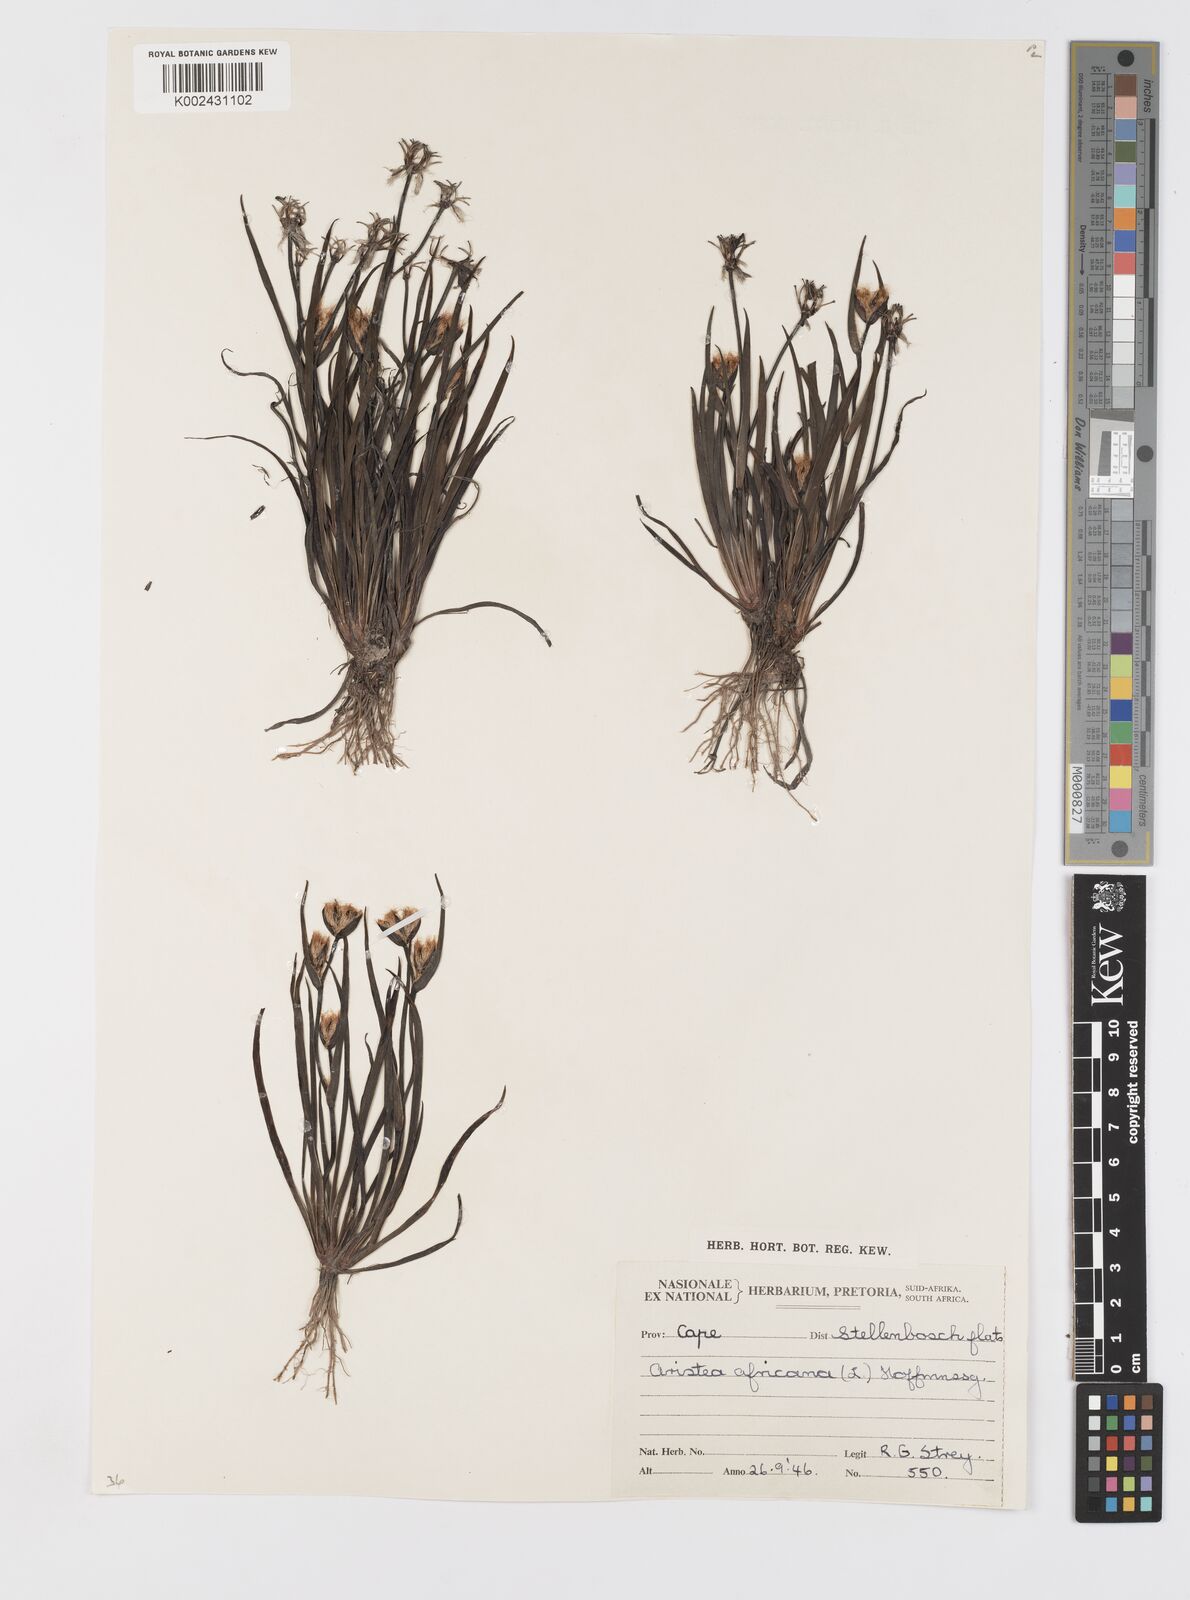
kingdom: Plantae
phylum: Tracheophyta
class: Liliopsida
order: Asparagales
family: Iridaceae
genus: Aristea
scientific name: Aristea africana
